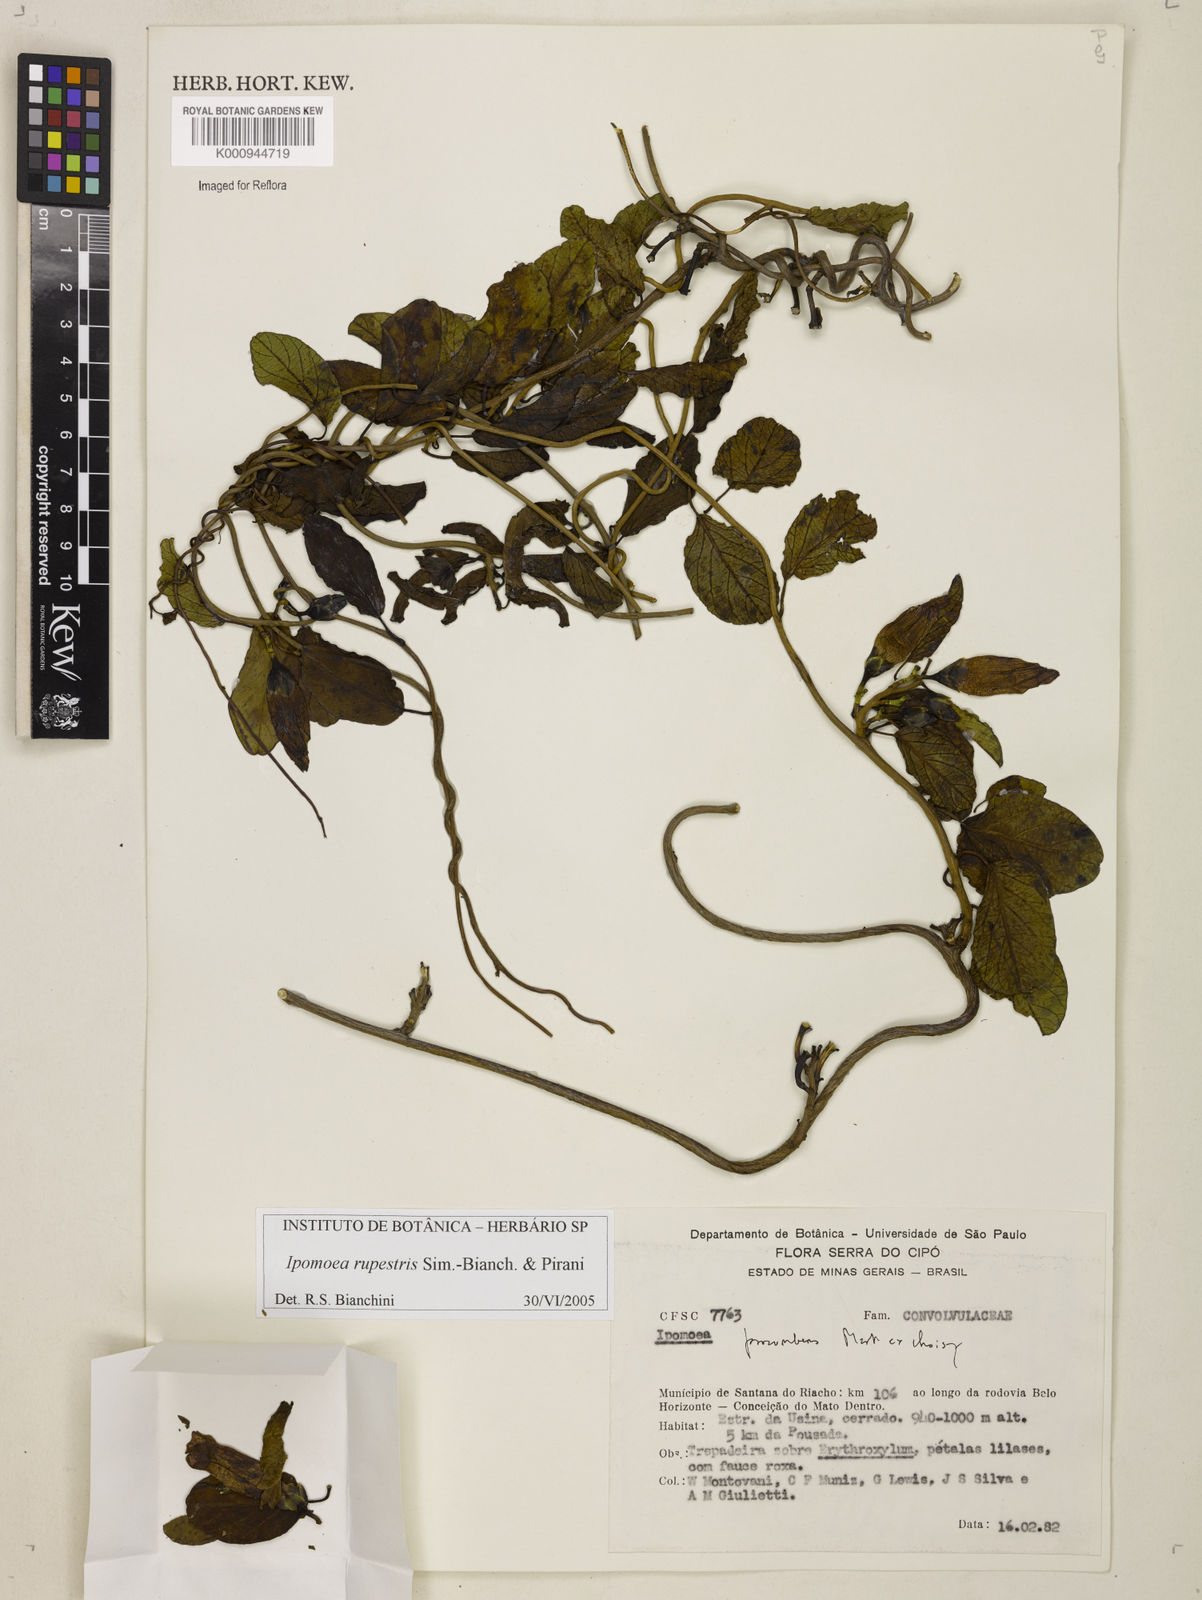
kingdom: Plantae
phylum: Tracheophyta
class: Magnoliopsida
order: Solanales
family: Convolvulaceae
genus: Ipomoea
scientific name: Ipomoea rupestris
